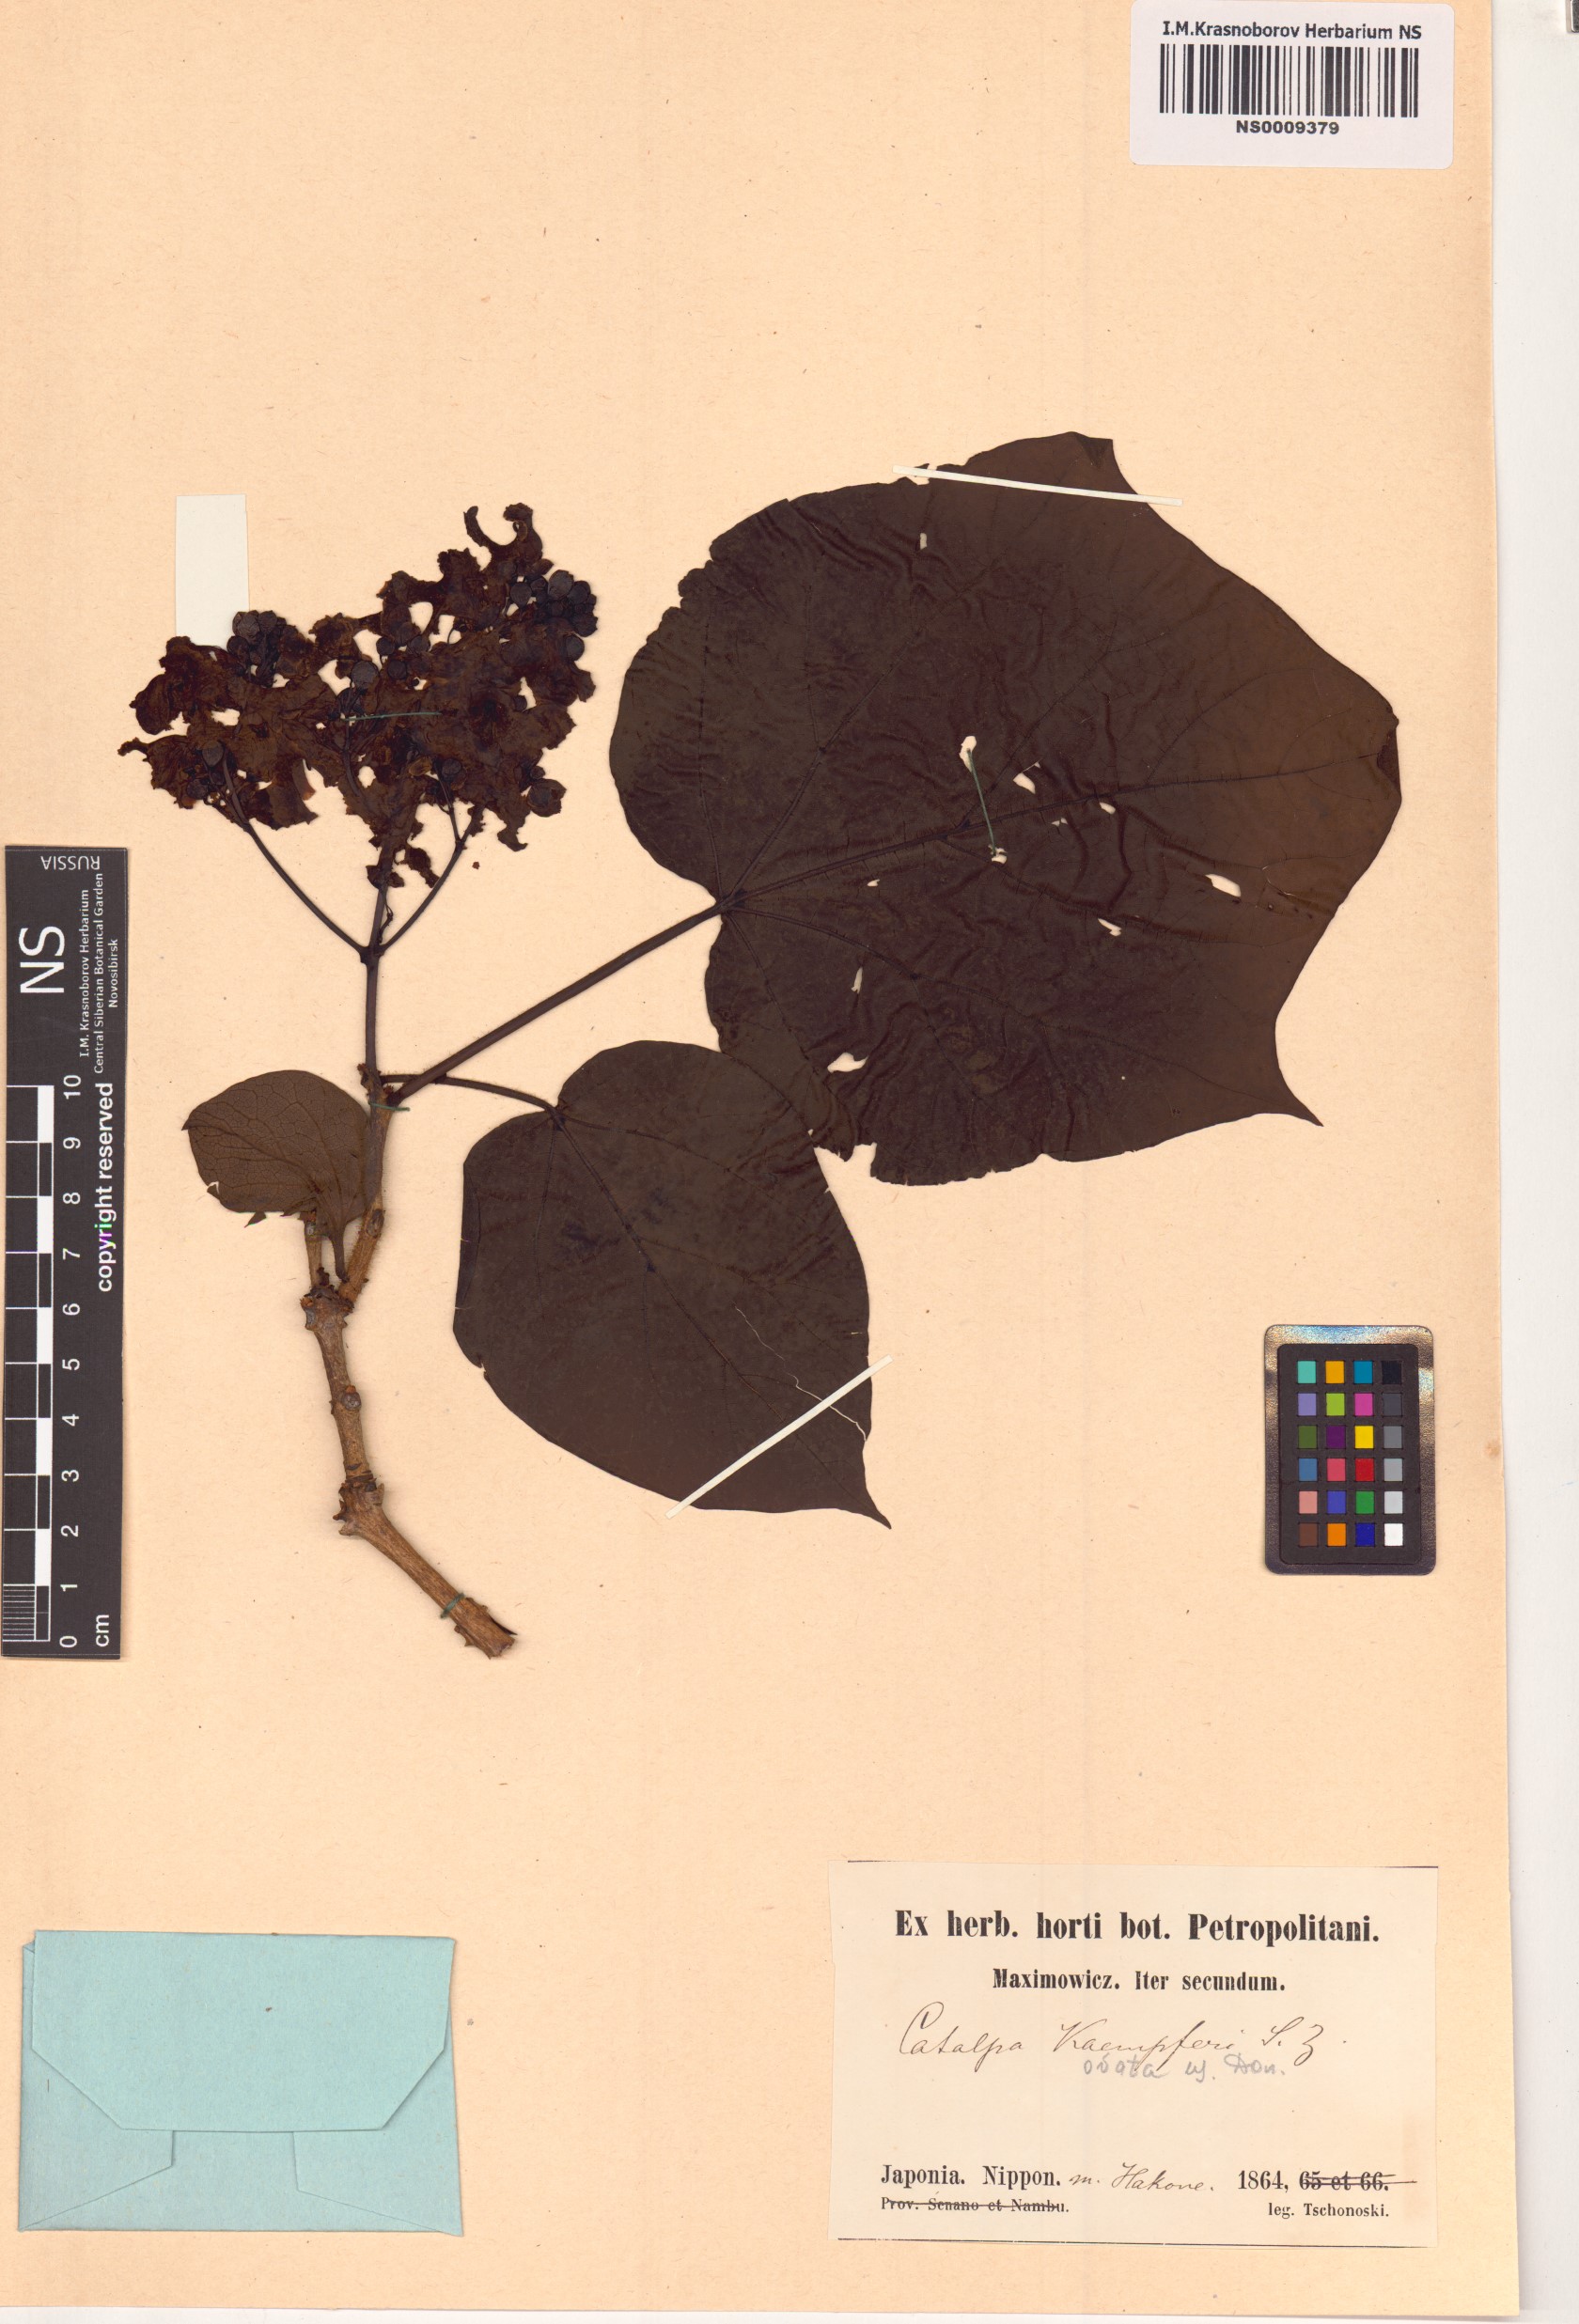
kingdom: Plantae
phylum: Tracheophyta
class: Magnoliopsida
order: Lamiales
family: Bignoniaceae
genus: Catalpa
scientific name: Catalpa ovata
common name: Chinese catalpa
